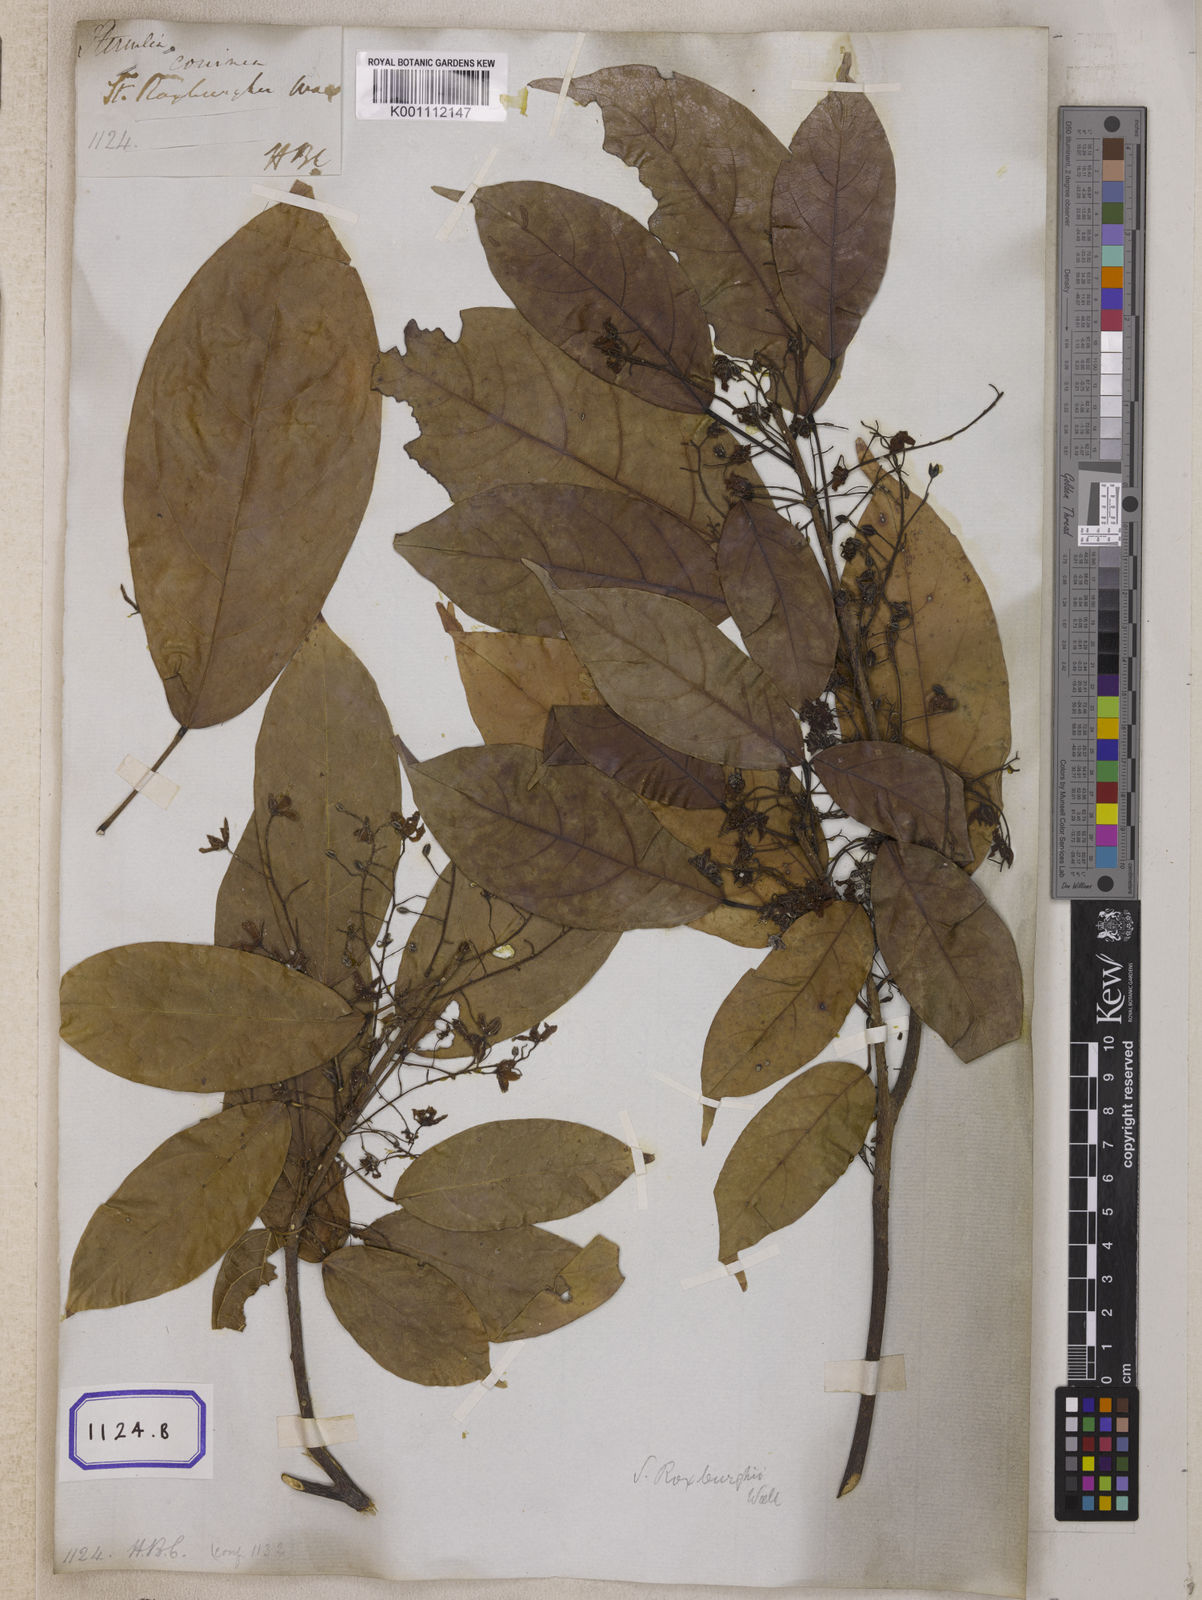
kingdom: Plantae
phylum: Tracheophyta
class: Magnoliopsida
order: Malvales
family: Malvaceae
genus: Sterculia
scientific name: Sterculia lanceifolia
